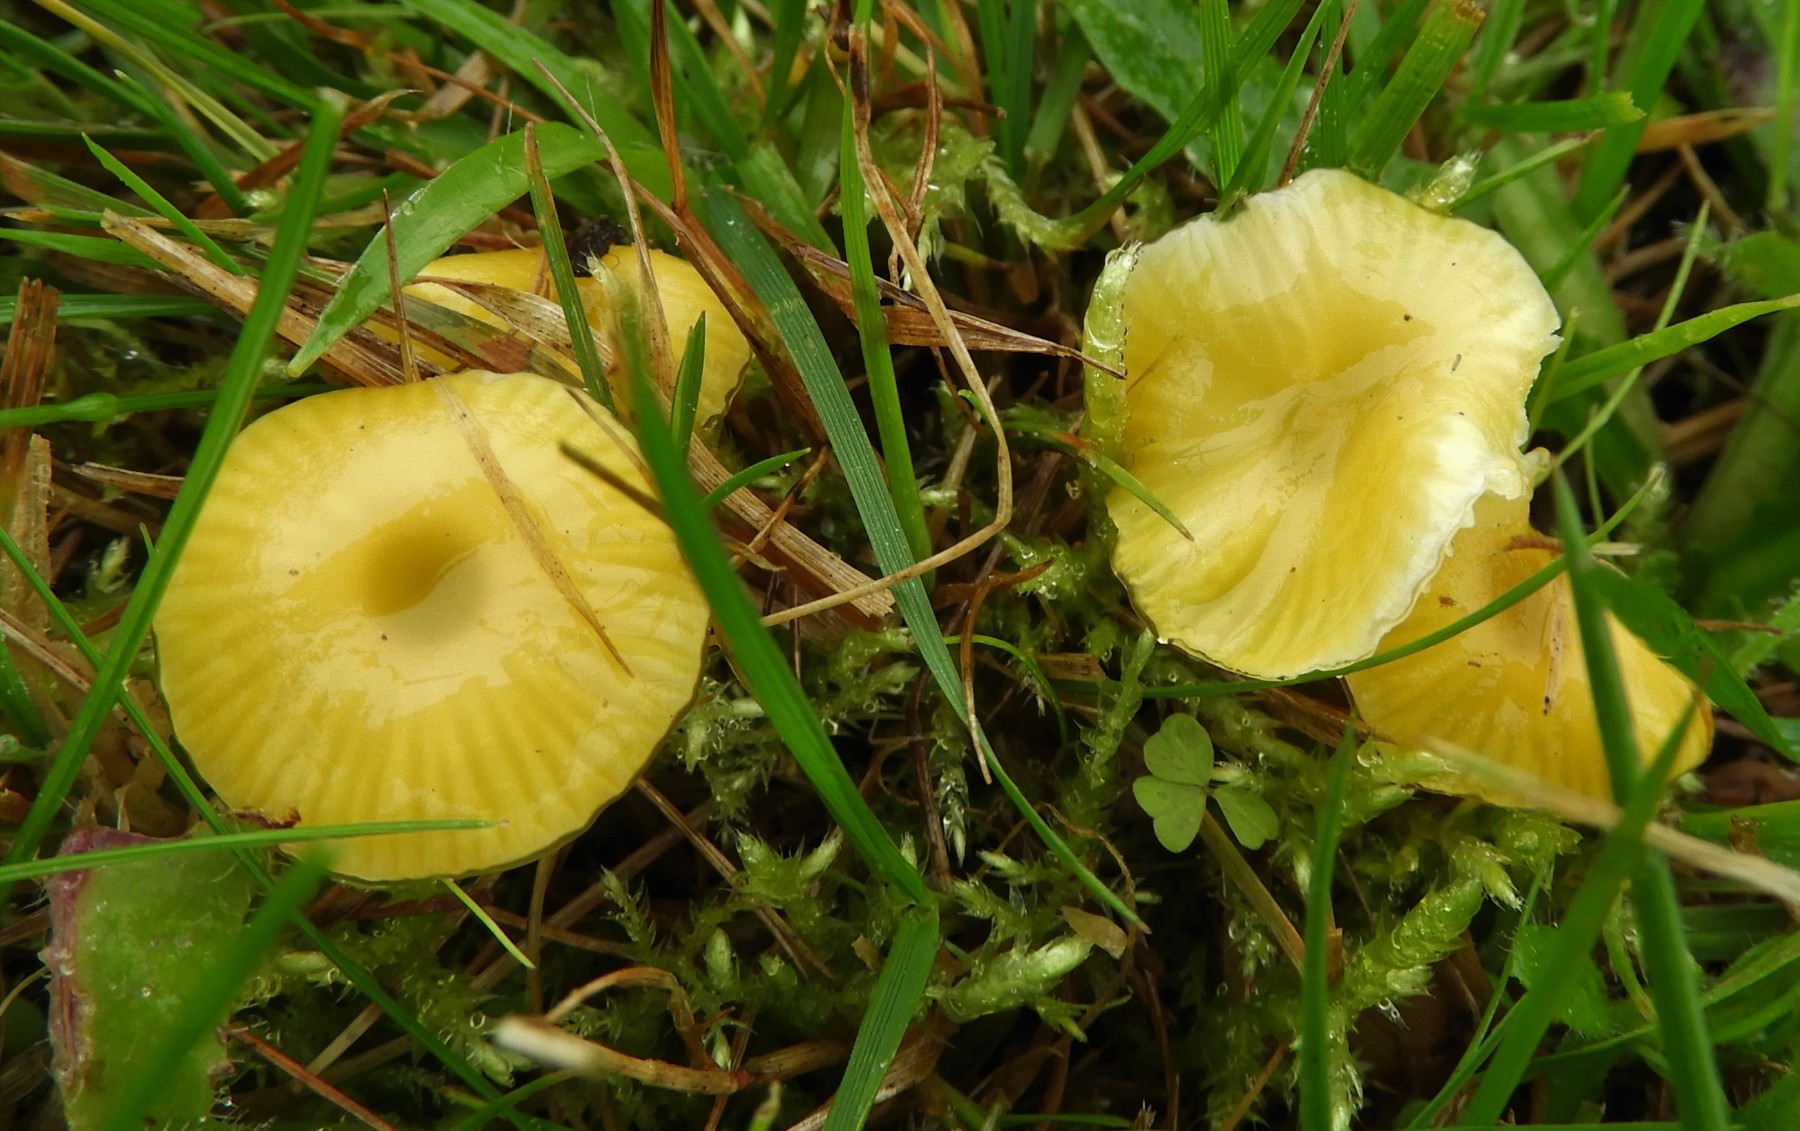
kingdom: Fungi
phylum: Basidiomycota
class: Agaricomycetes
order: Agaricales
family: Hygrophoraceae
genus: Hygrocybe
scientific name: Hygrocybe glutinipes
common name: slimstokket vokshat
